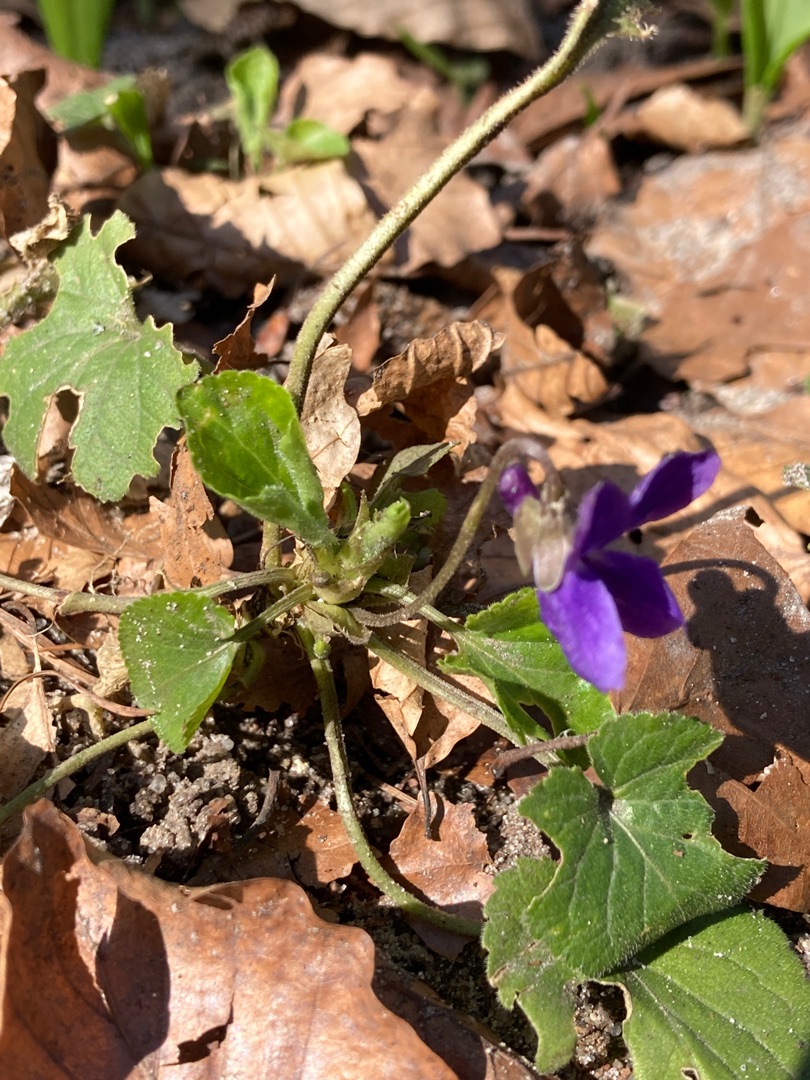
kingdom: Plantae
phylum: Tracheophyta
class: Magnoliopsida
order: Malpighiales
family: Violaceae
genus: Viola
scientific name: Viola odorata
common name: Marts-viol
